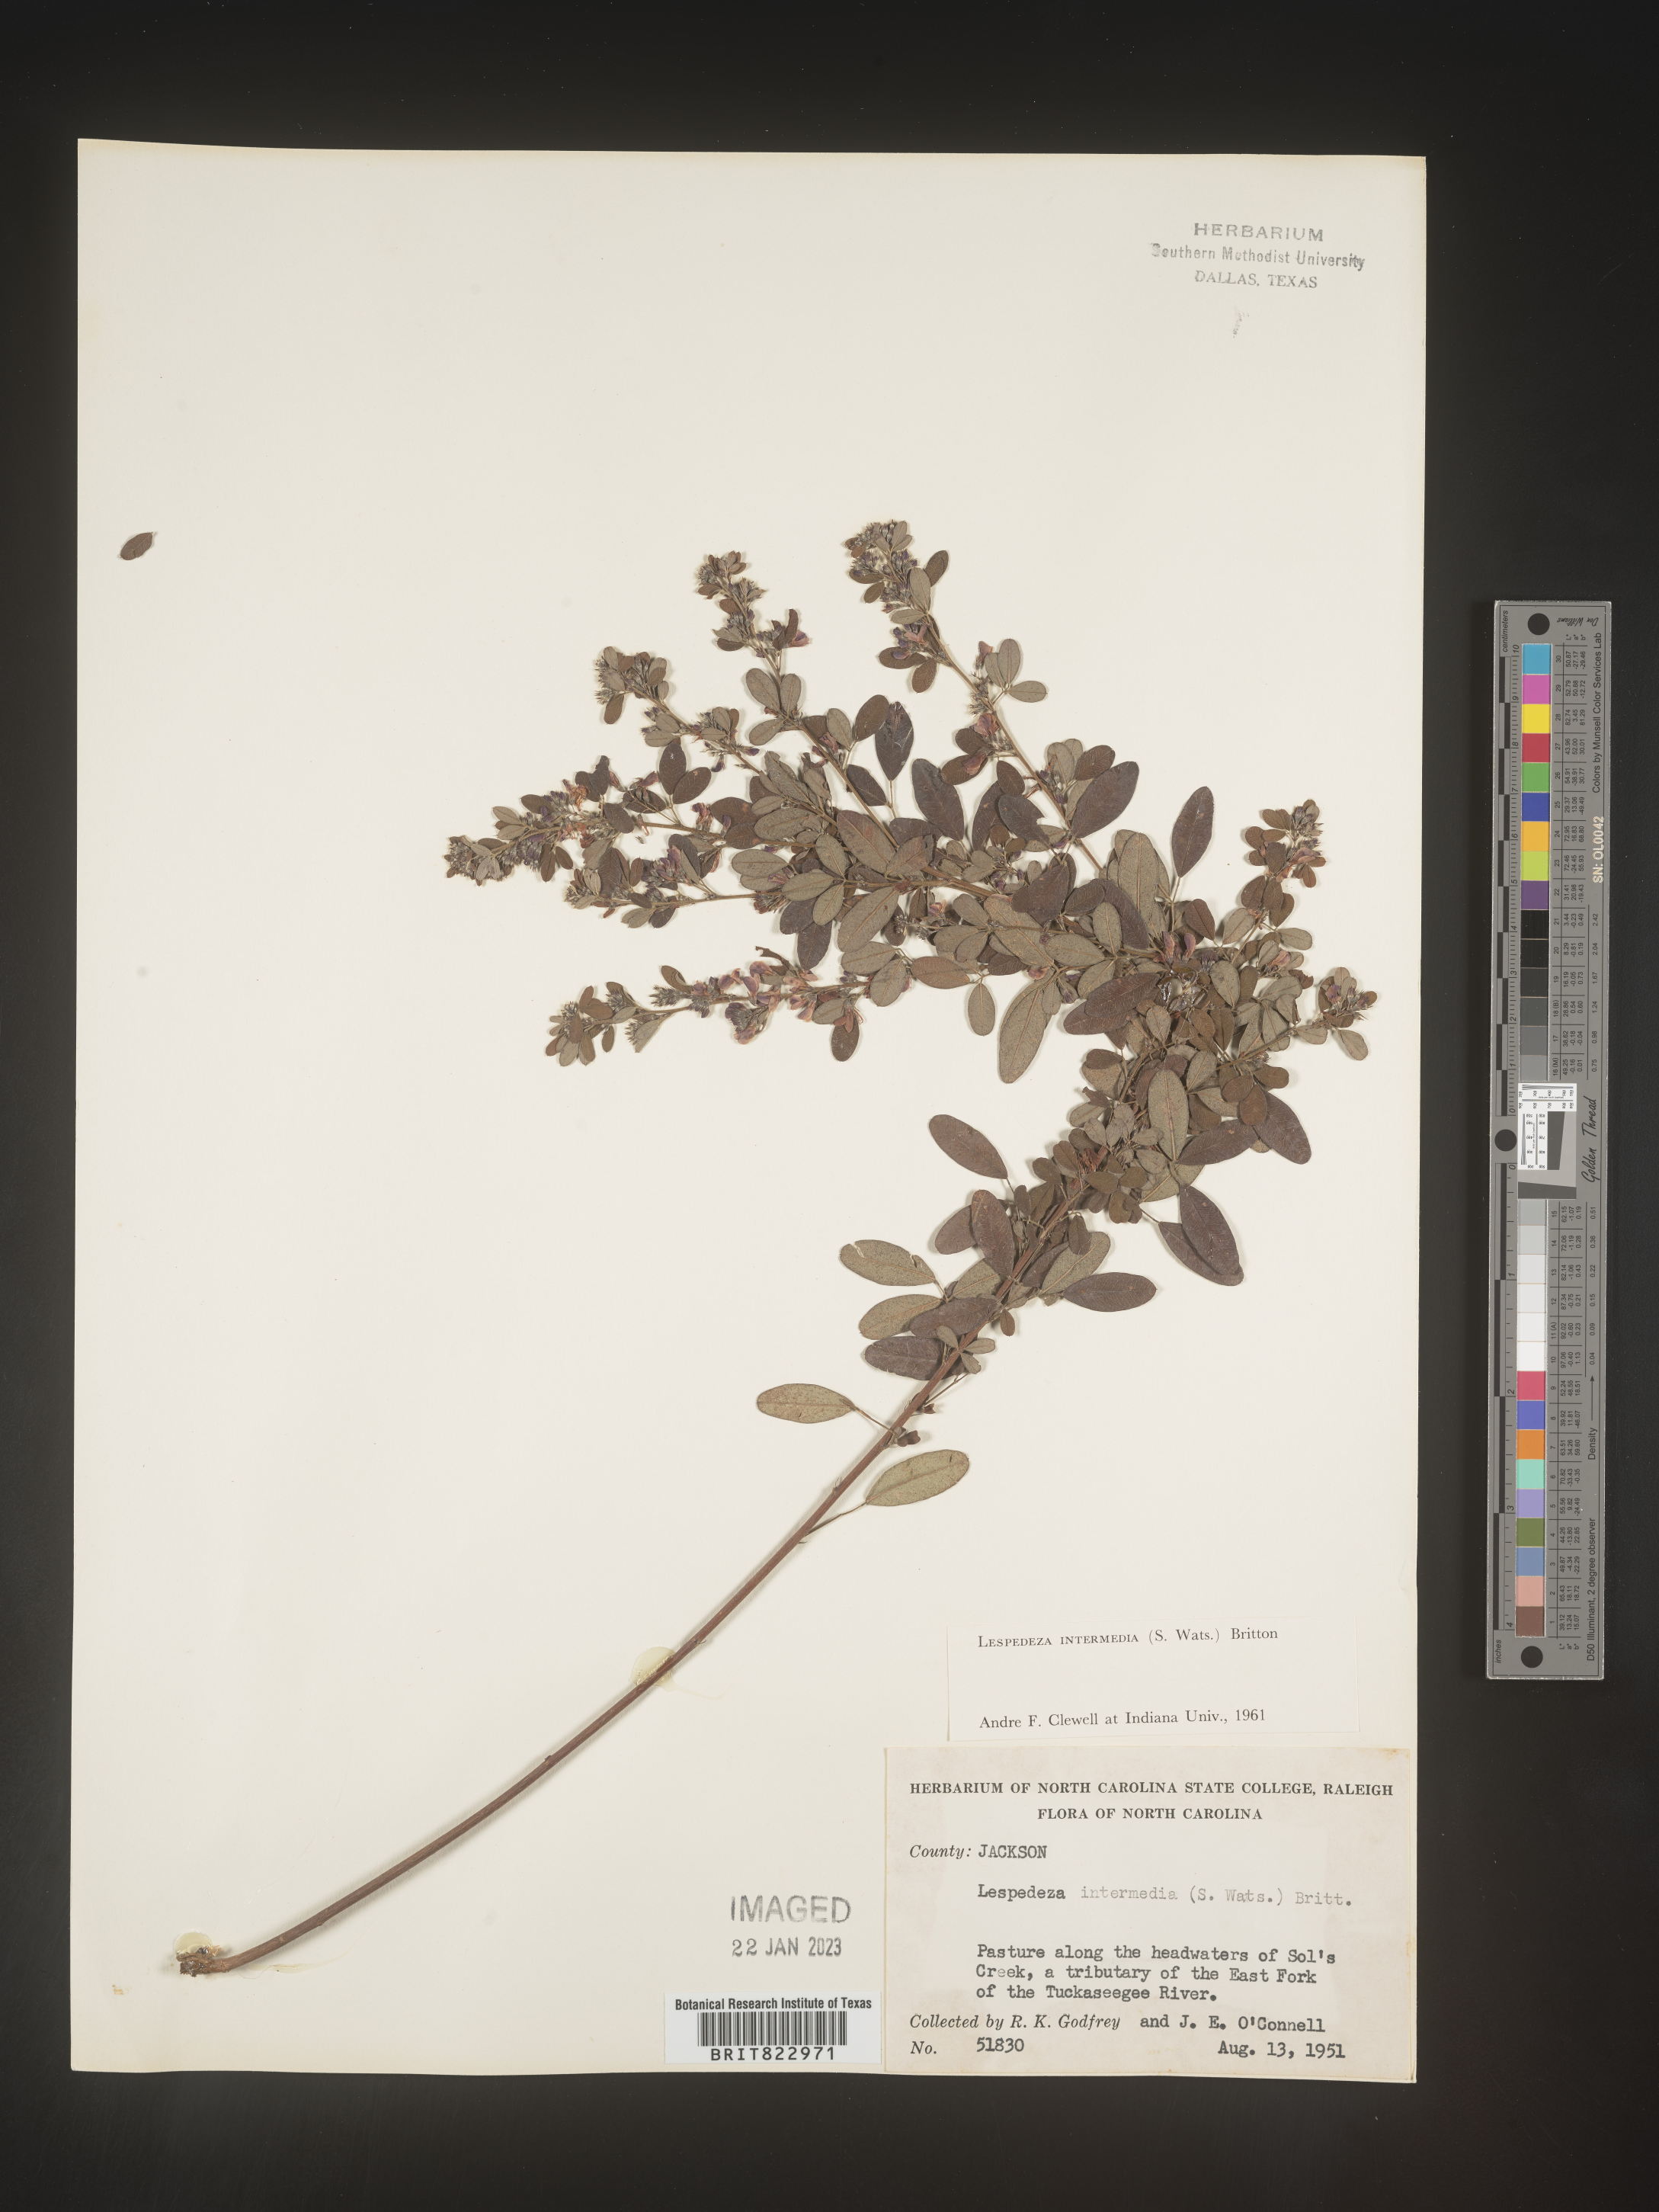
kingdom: Plantae
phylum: Tracheophyta
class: Magnoliopsida
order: Fabales
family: Fabaceae
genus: Lespedeza
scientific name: Lespedeza
